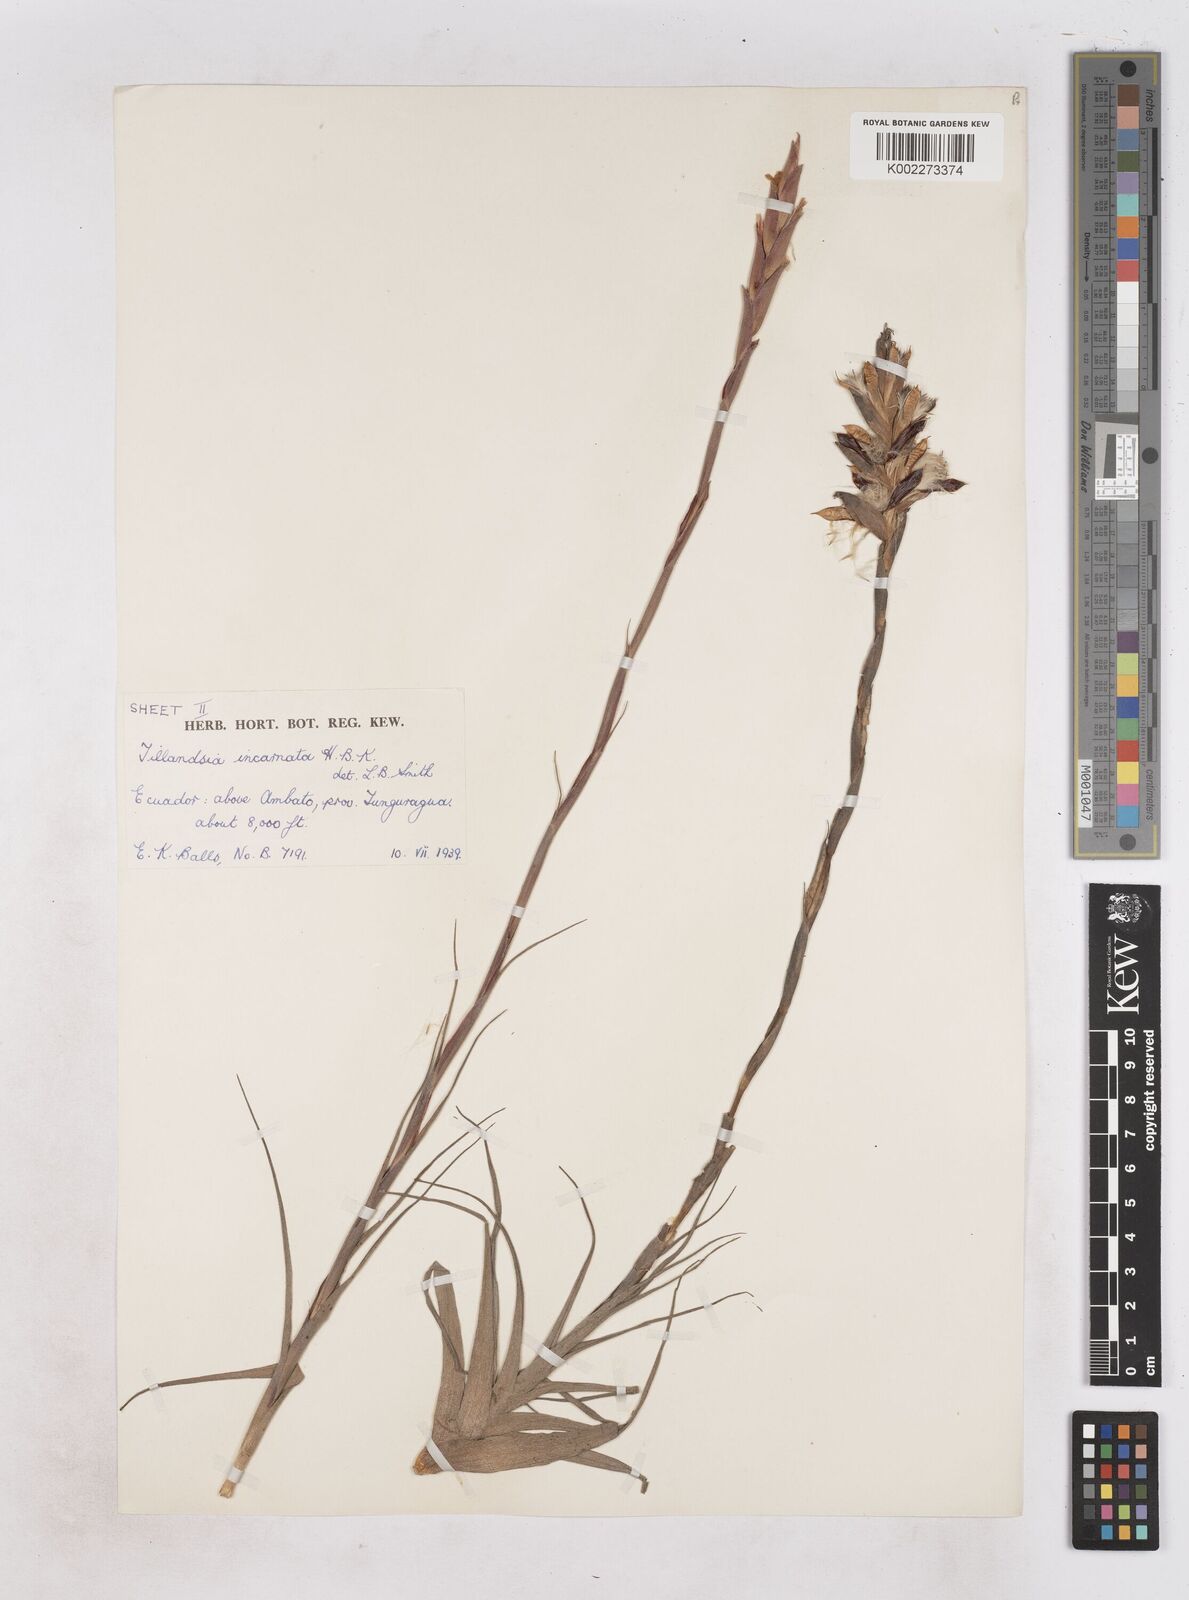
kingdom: Plantae
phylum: Tracheophyta
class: Liliopsida
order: Poales
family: Bromeliaceae
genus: Tillandsia
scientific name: Tillandsia incarnata
